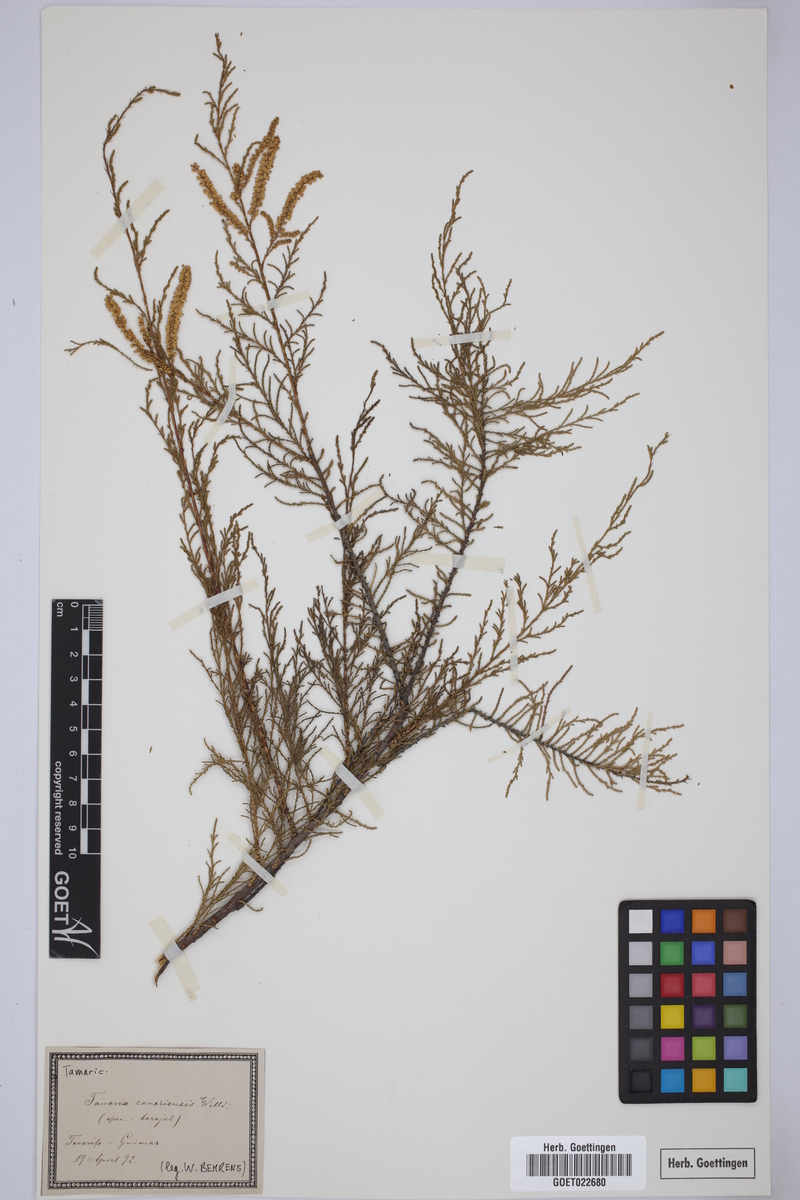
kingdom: Plantae
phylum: Tracheophyta
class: Magnoliopsida
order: Caryophyllales
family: Tamaricaceae
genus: Tamarix
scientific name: Tamarix canariensis
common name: Canary island tamarisk
